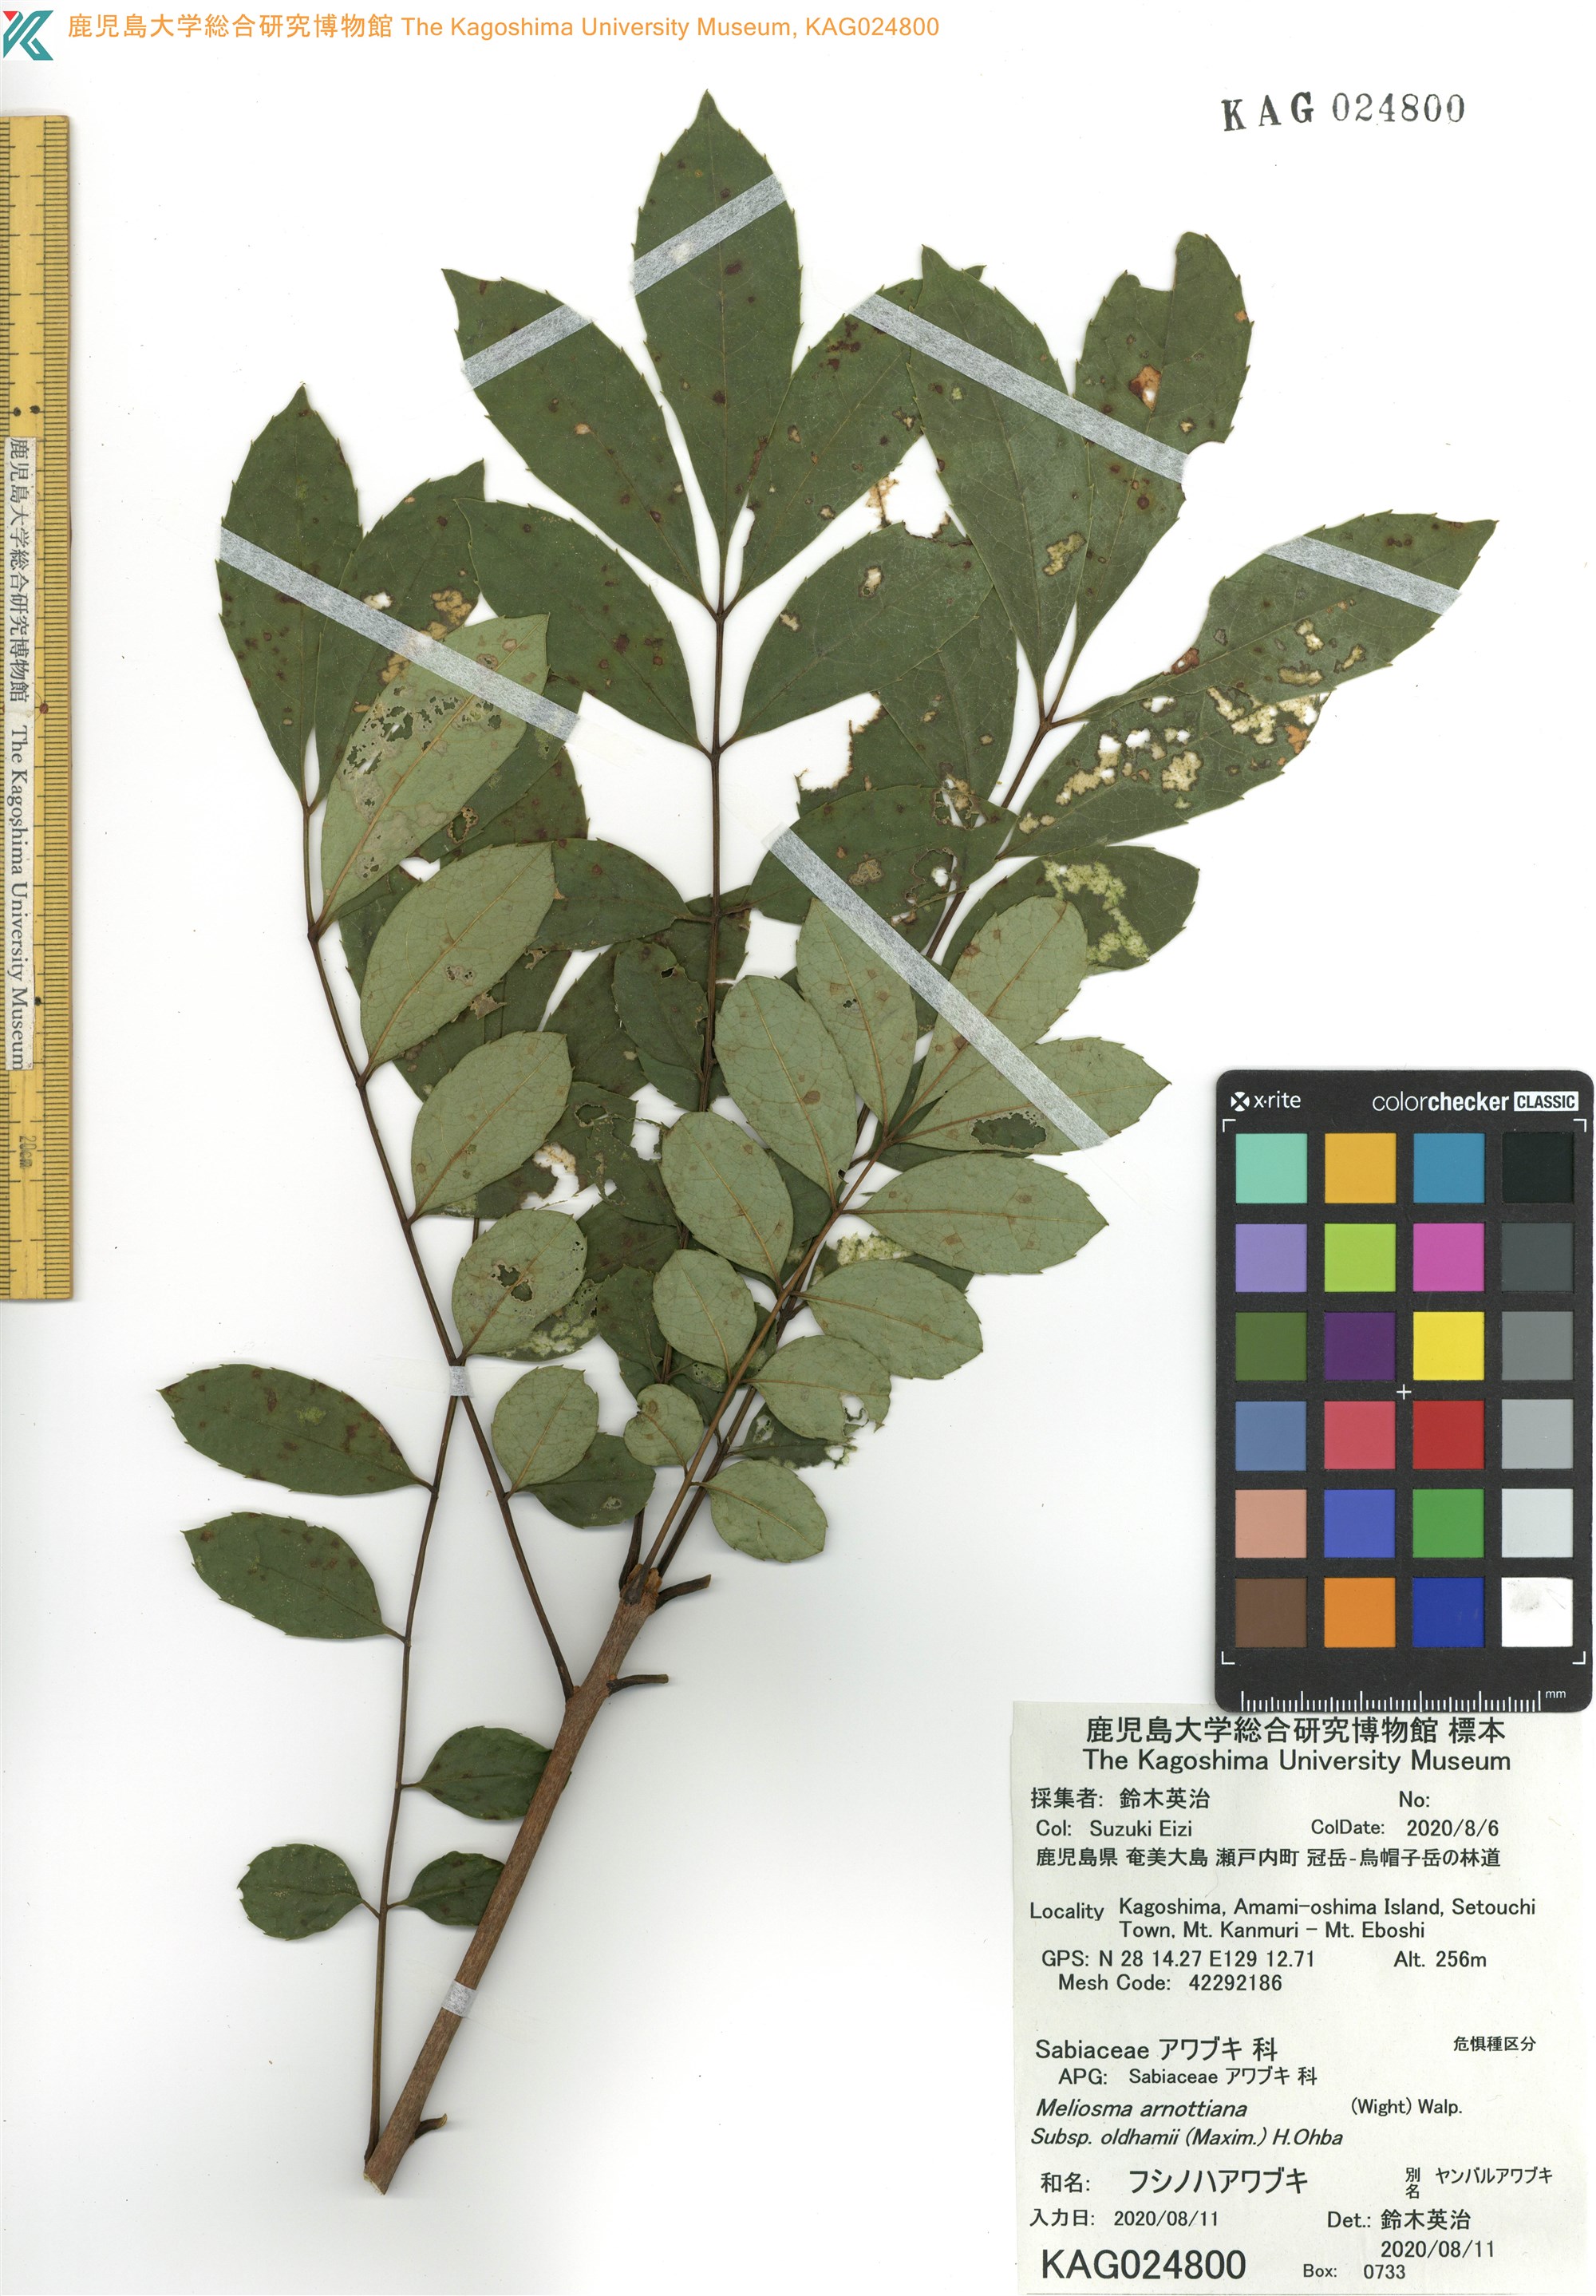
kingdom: Plantae
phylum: Tracheophyta
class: Magnoliopsida
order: Proteales
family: Sabiaceae
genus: Meliosma
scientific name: Meliosma oldhamii
